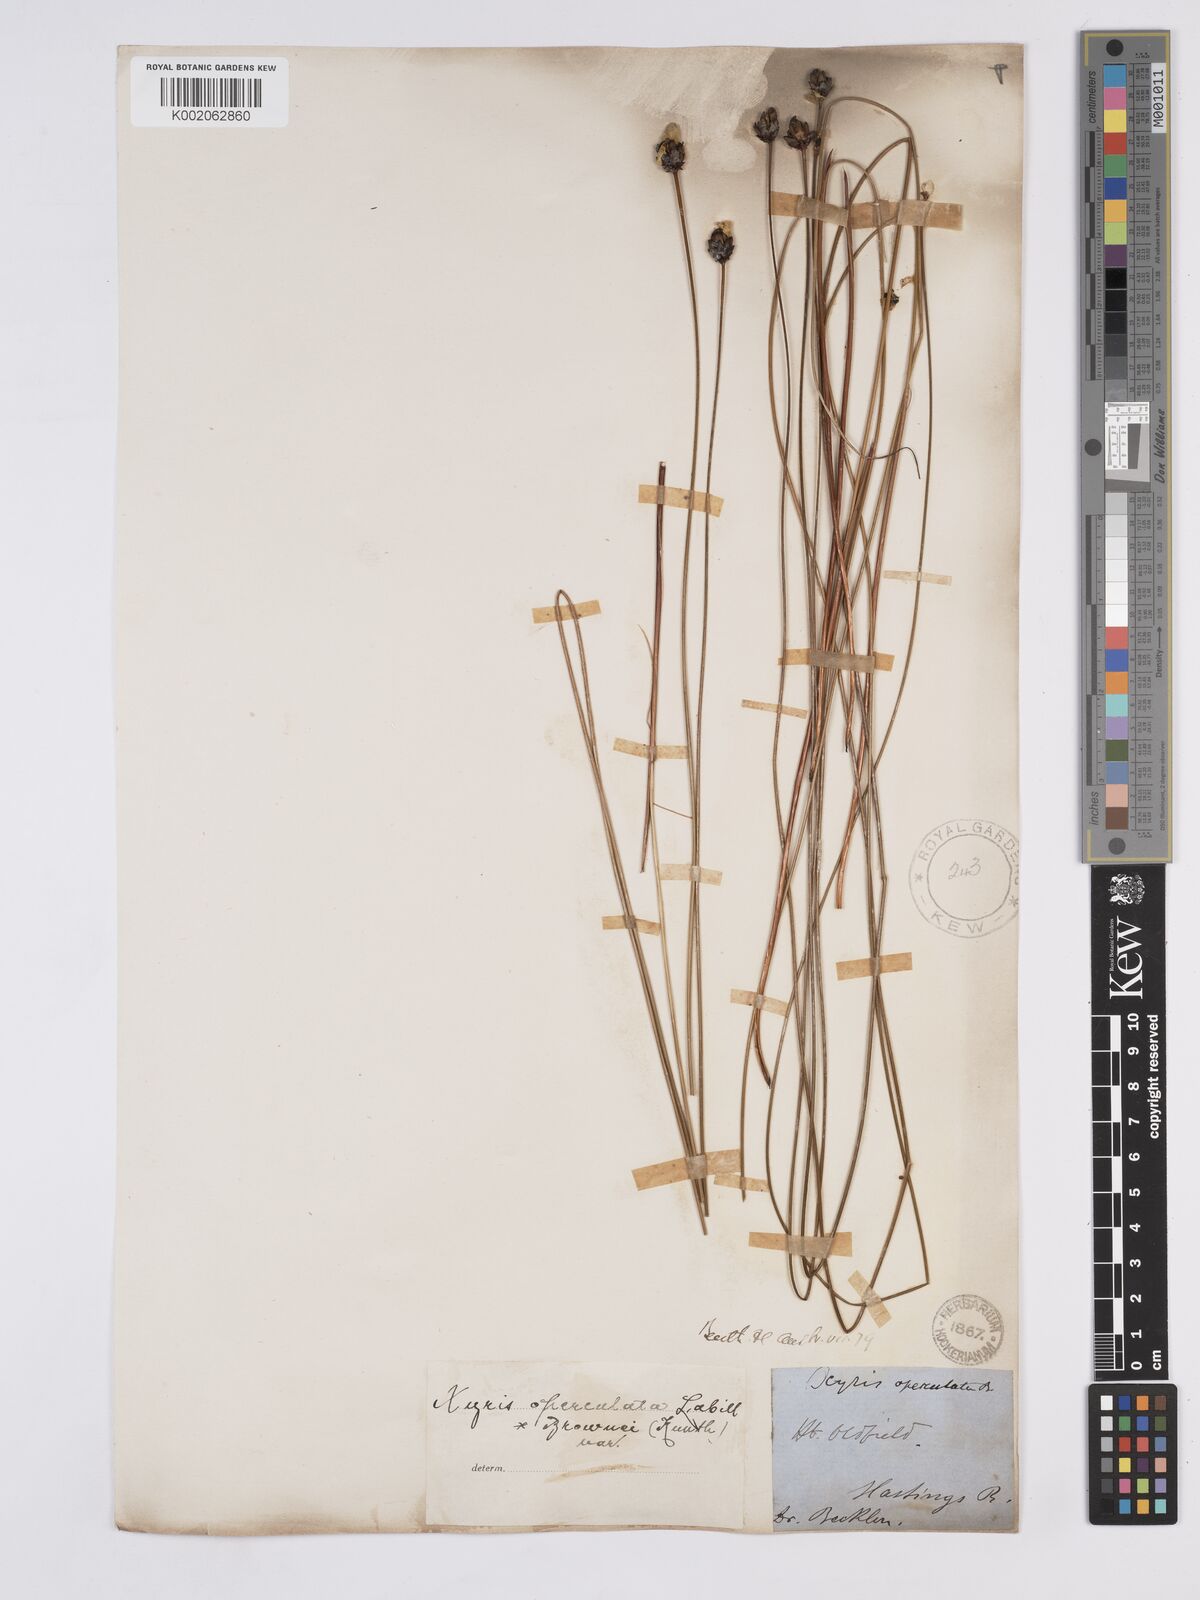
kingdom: Plantae
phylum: Tracheophyta
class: Liliopsida
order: Poales
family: Xyridaceae
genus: Xyris
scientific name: Xyris operculata
